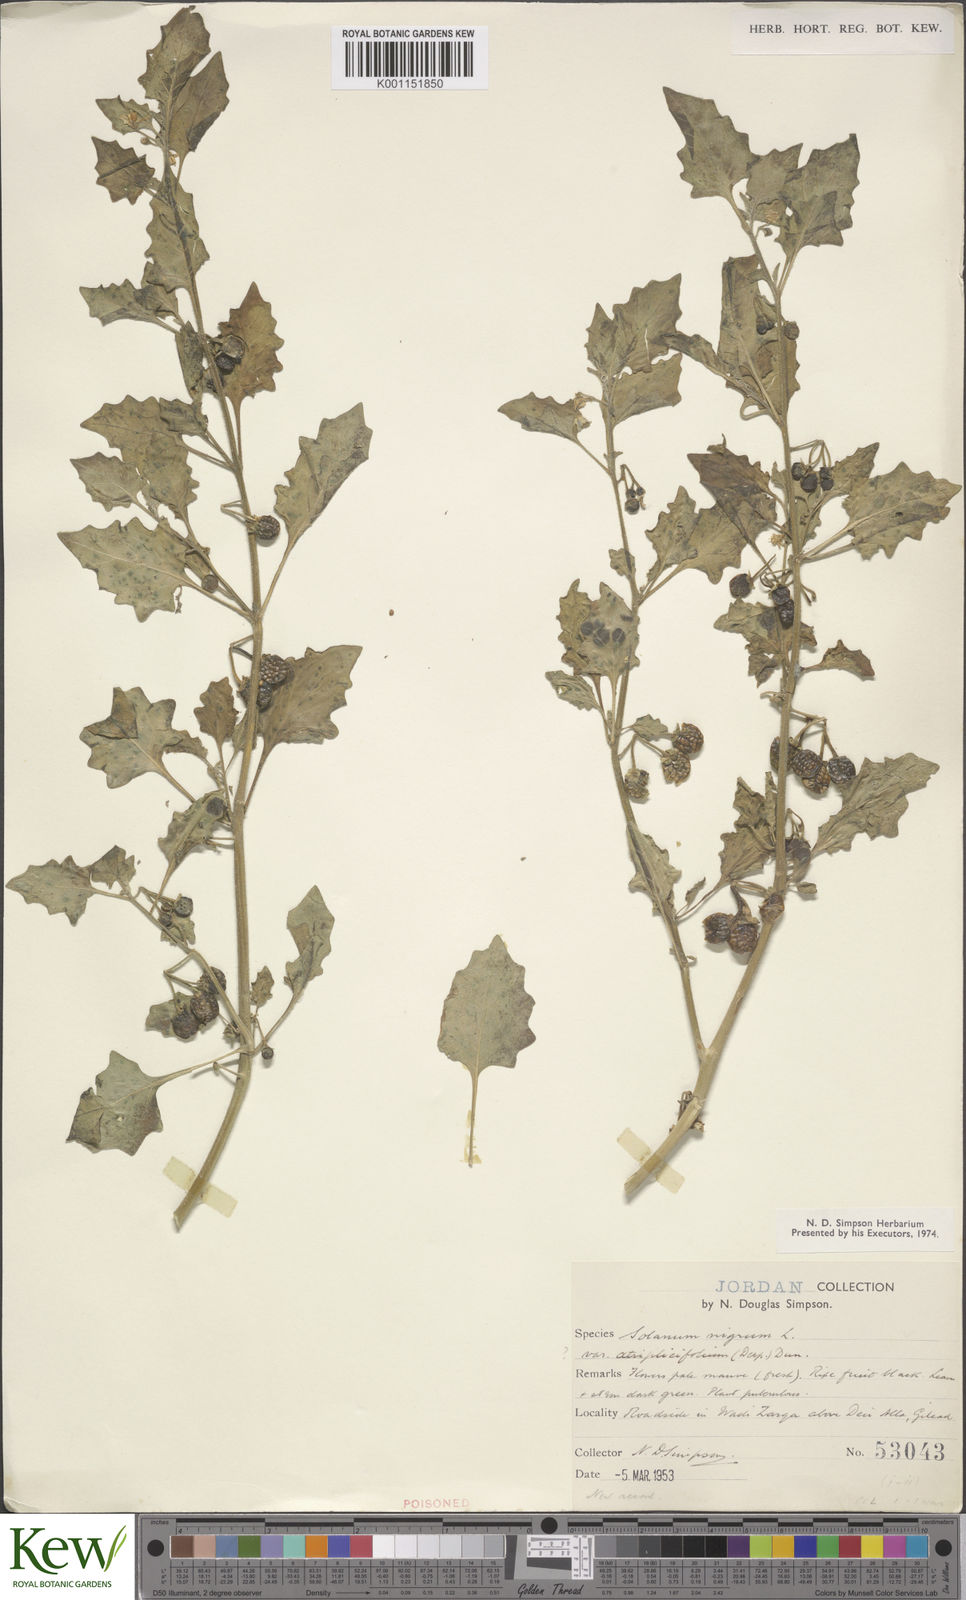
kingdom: Plantae
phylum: Tracheophyta
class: Magnoliopsida
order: Solanales
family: Solanaceae
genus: Solanum
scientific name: Solanum retroflexum
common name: Wonderberry
